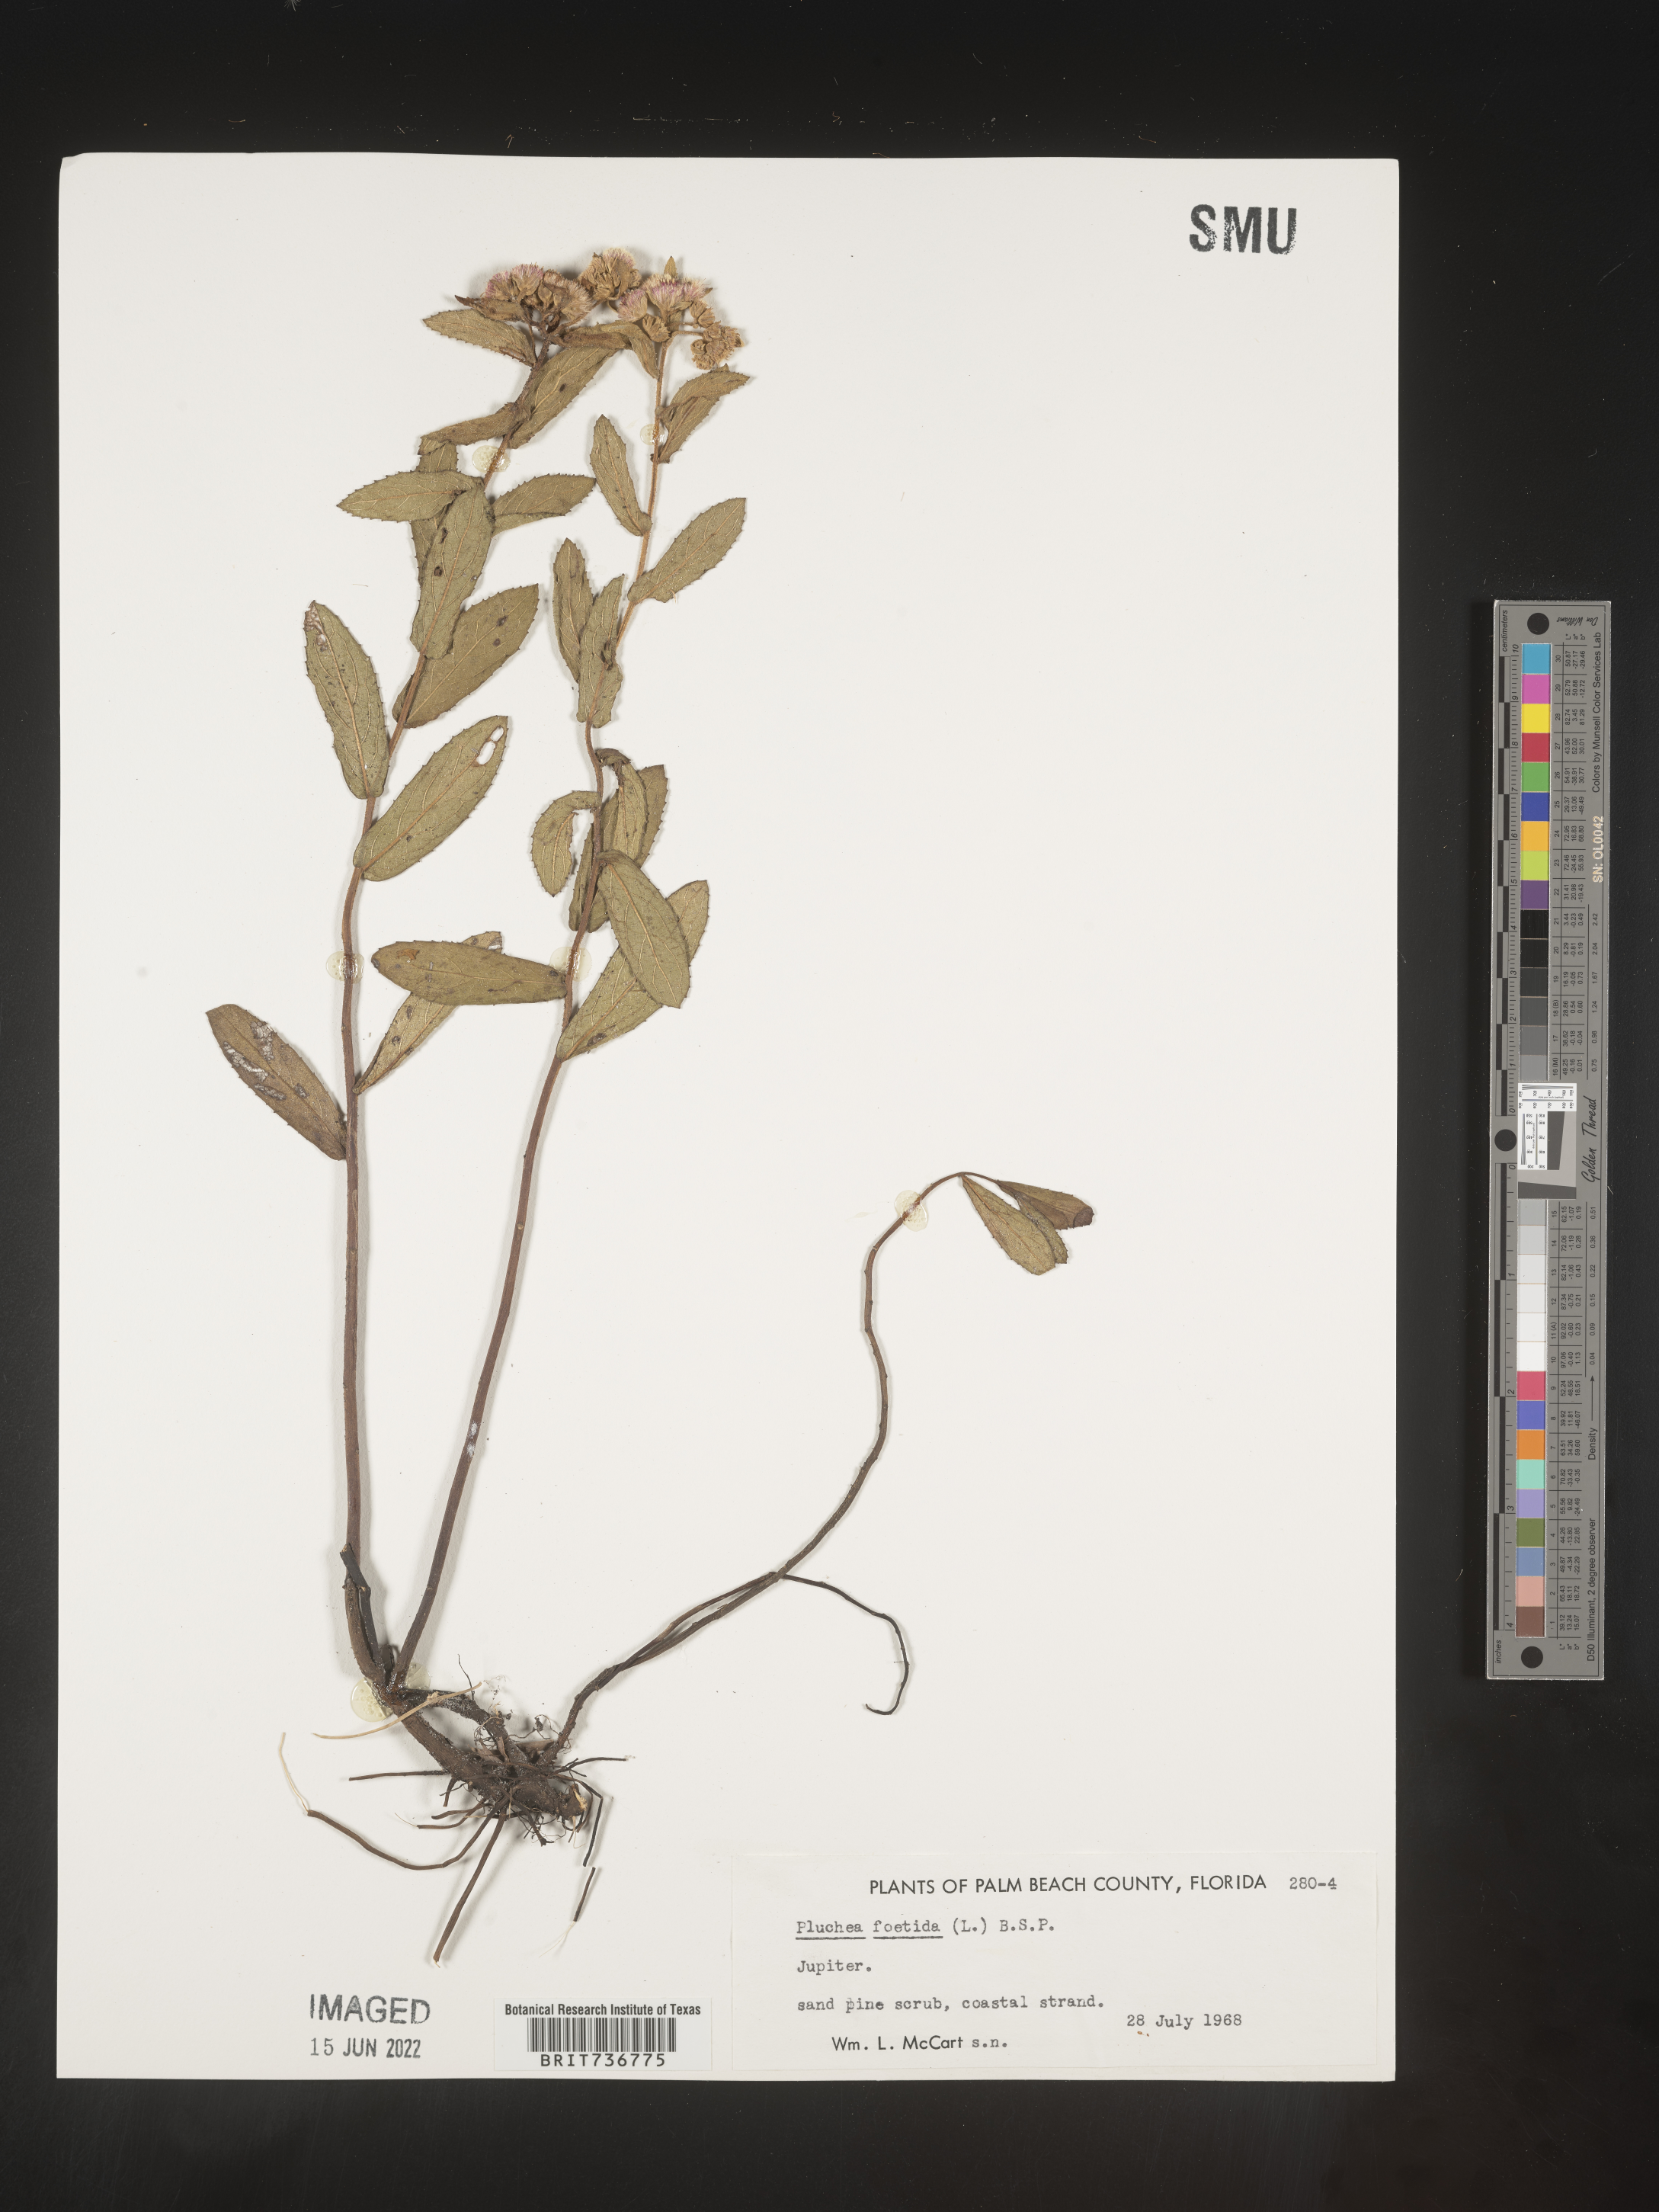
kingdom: Plantae
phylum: Tracheophyta
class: Magnoliopsida
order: Asterales
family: Asteraceae
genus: Pluchea
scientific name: Pluchea baccharis
